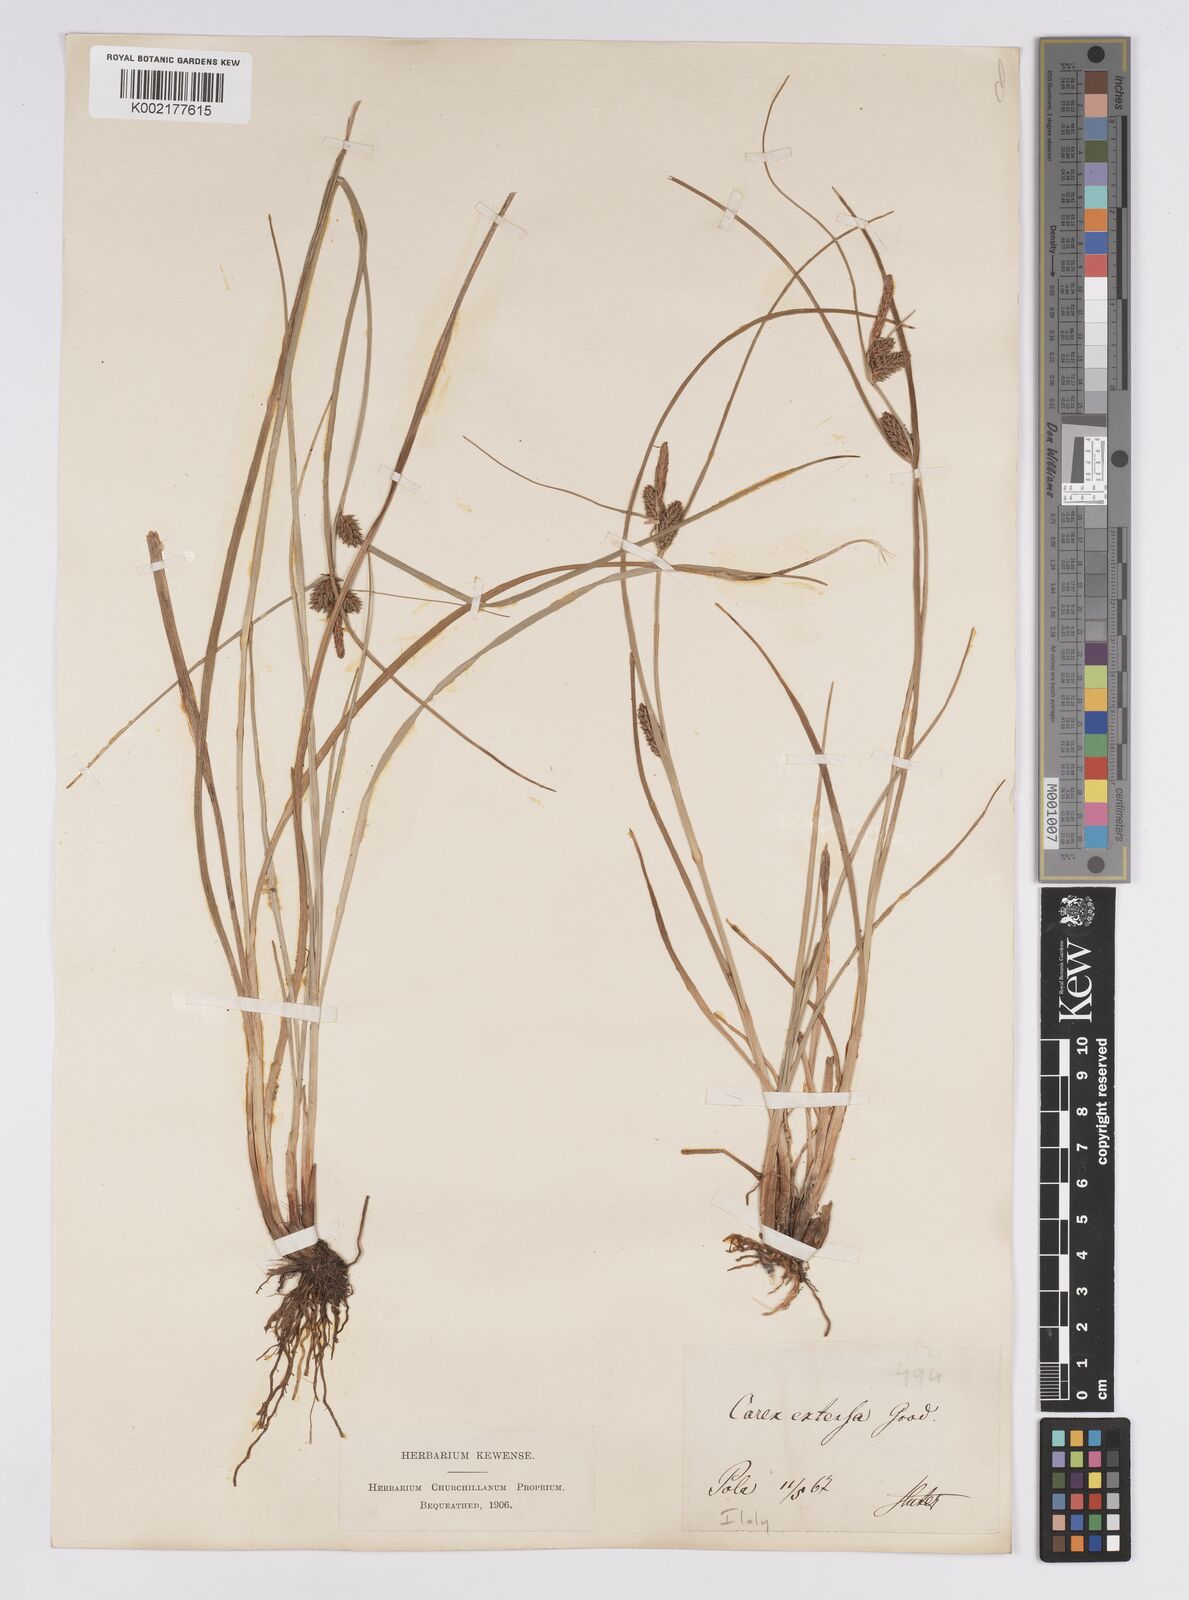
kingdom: Plantae
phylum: Tracheophyta
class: Liliopsida
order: Poales
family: Cyperaceae
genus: Carex
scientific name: Carex extensa
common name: Long-bracted sedge
